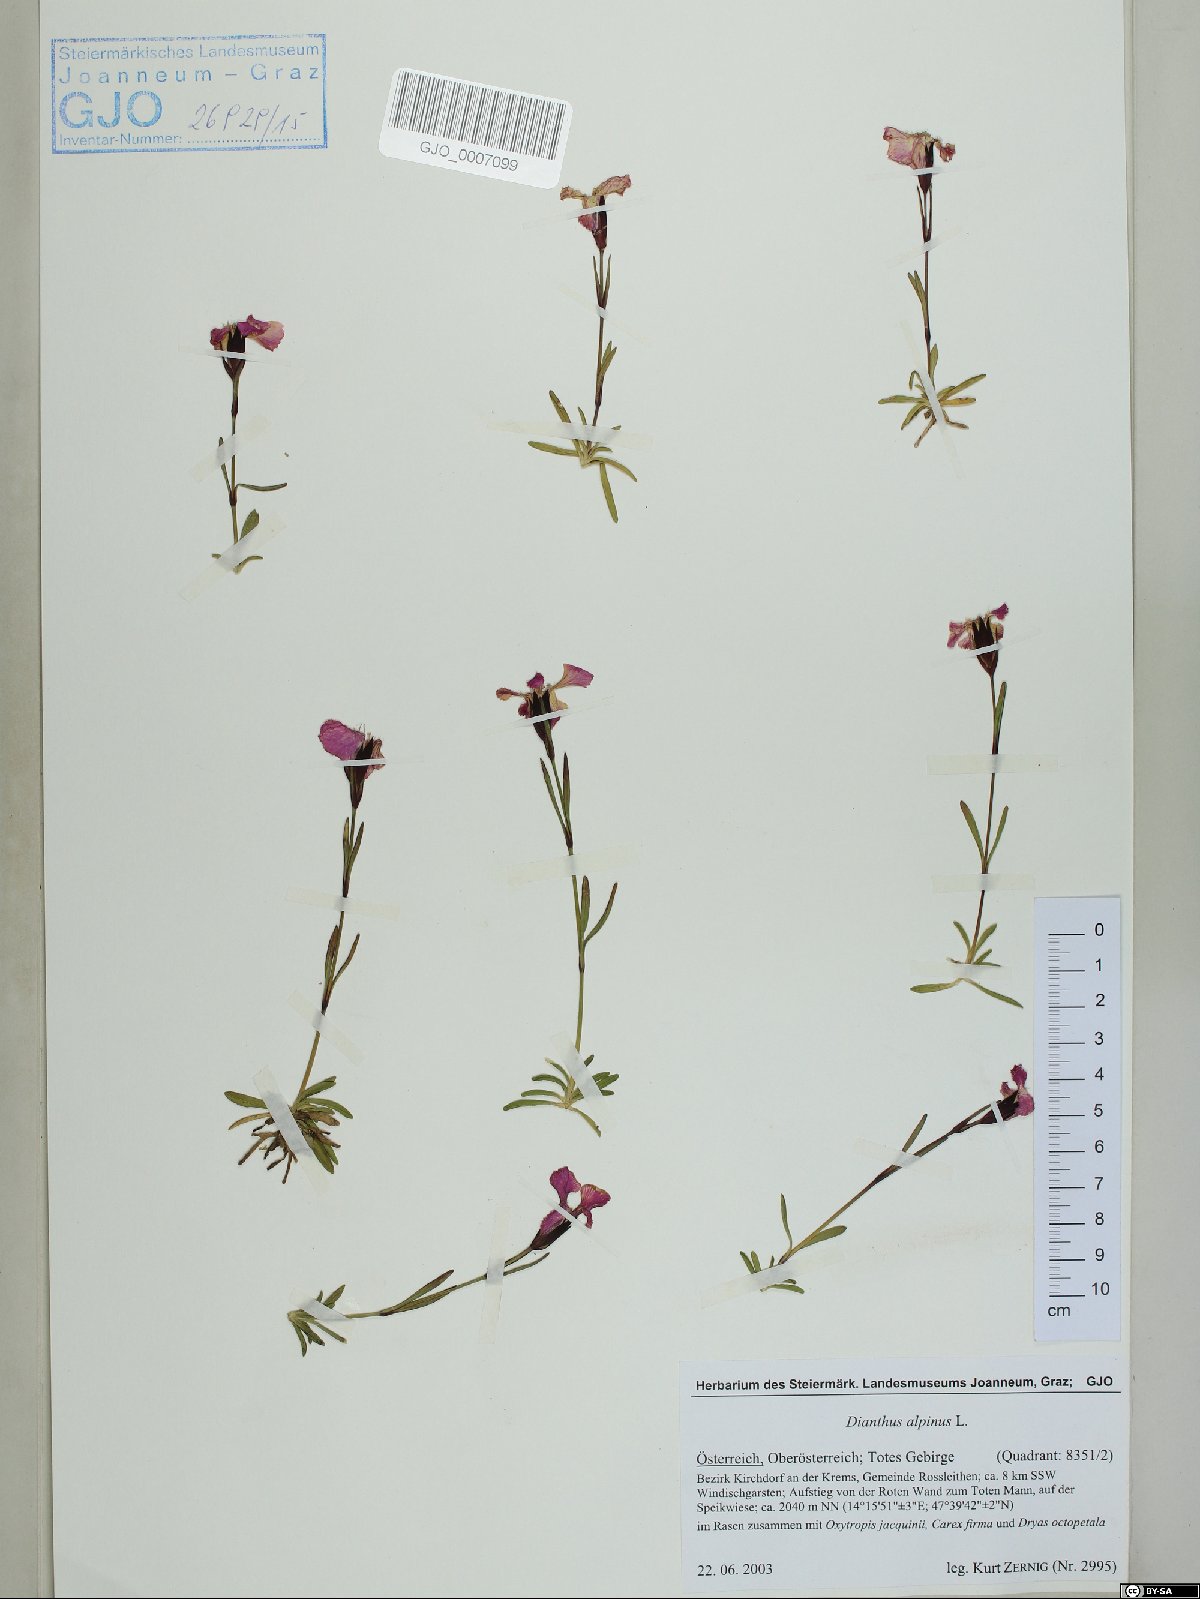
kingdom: Plantae
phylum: Tracheophyta
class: Magnoliopsida
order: Caryophyllales
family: Caryophyllaceae
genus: Dianthus
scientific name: Dianthus alpinus
